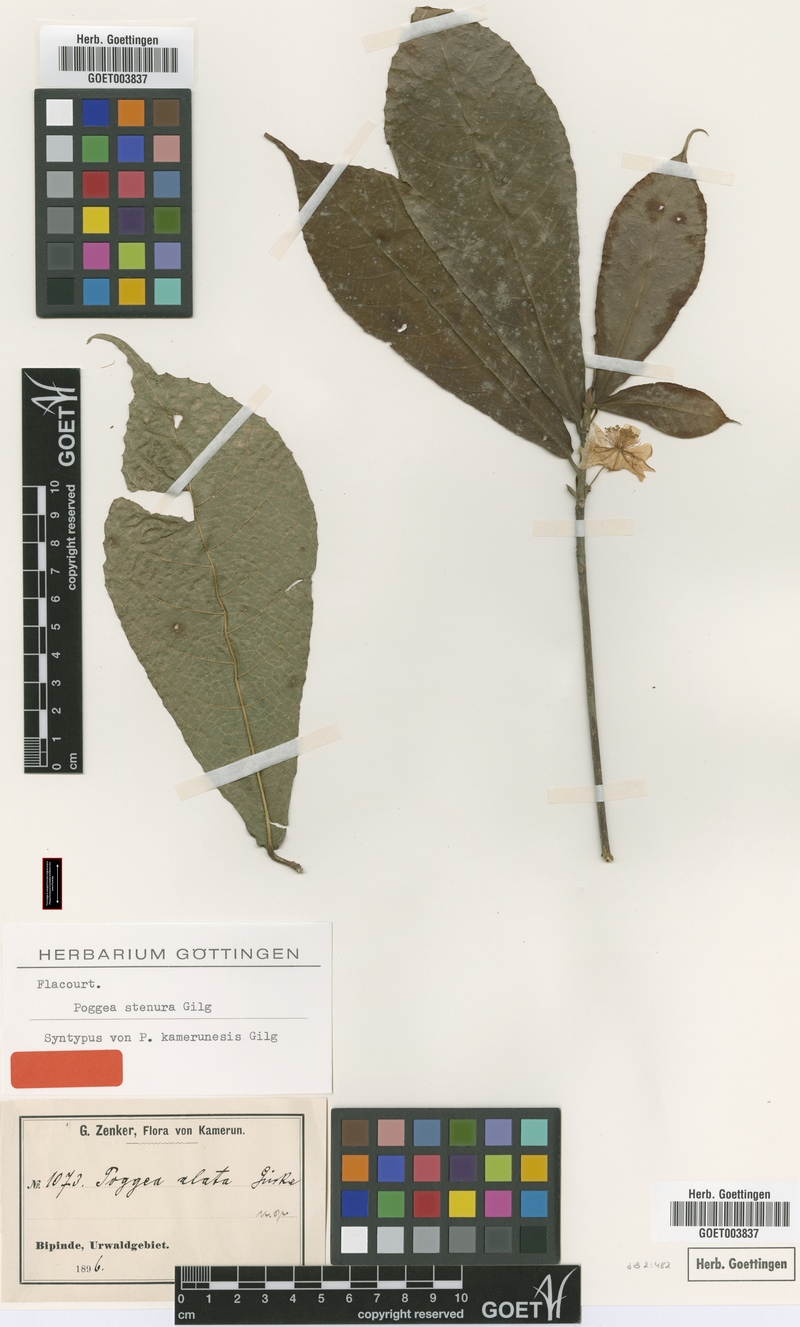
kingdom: Plantae
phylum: Tracheophyta
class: Magnoliopsida
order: Malpighiales
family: Achariaceae
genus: Poggea
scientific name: Poggea alata
